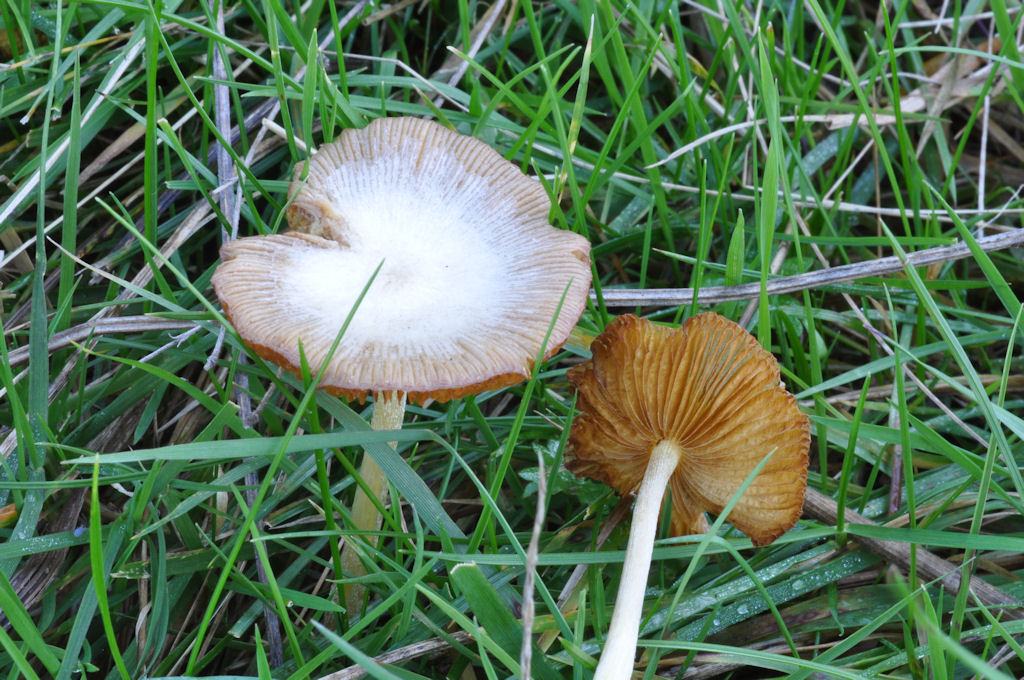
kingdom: Fungi
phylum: Basidiomycota
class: Agaricomycetes
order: Agaricales
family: Bolbitiaceae
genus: Bolbitius
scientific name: Bolbitius titubans
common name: almindelig gulhat
